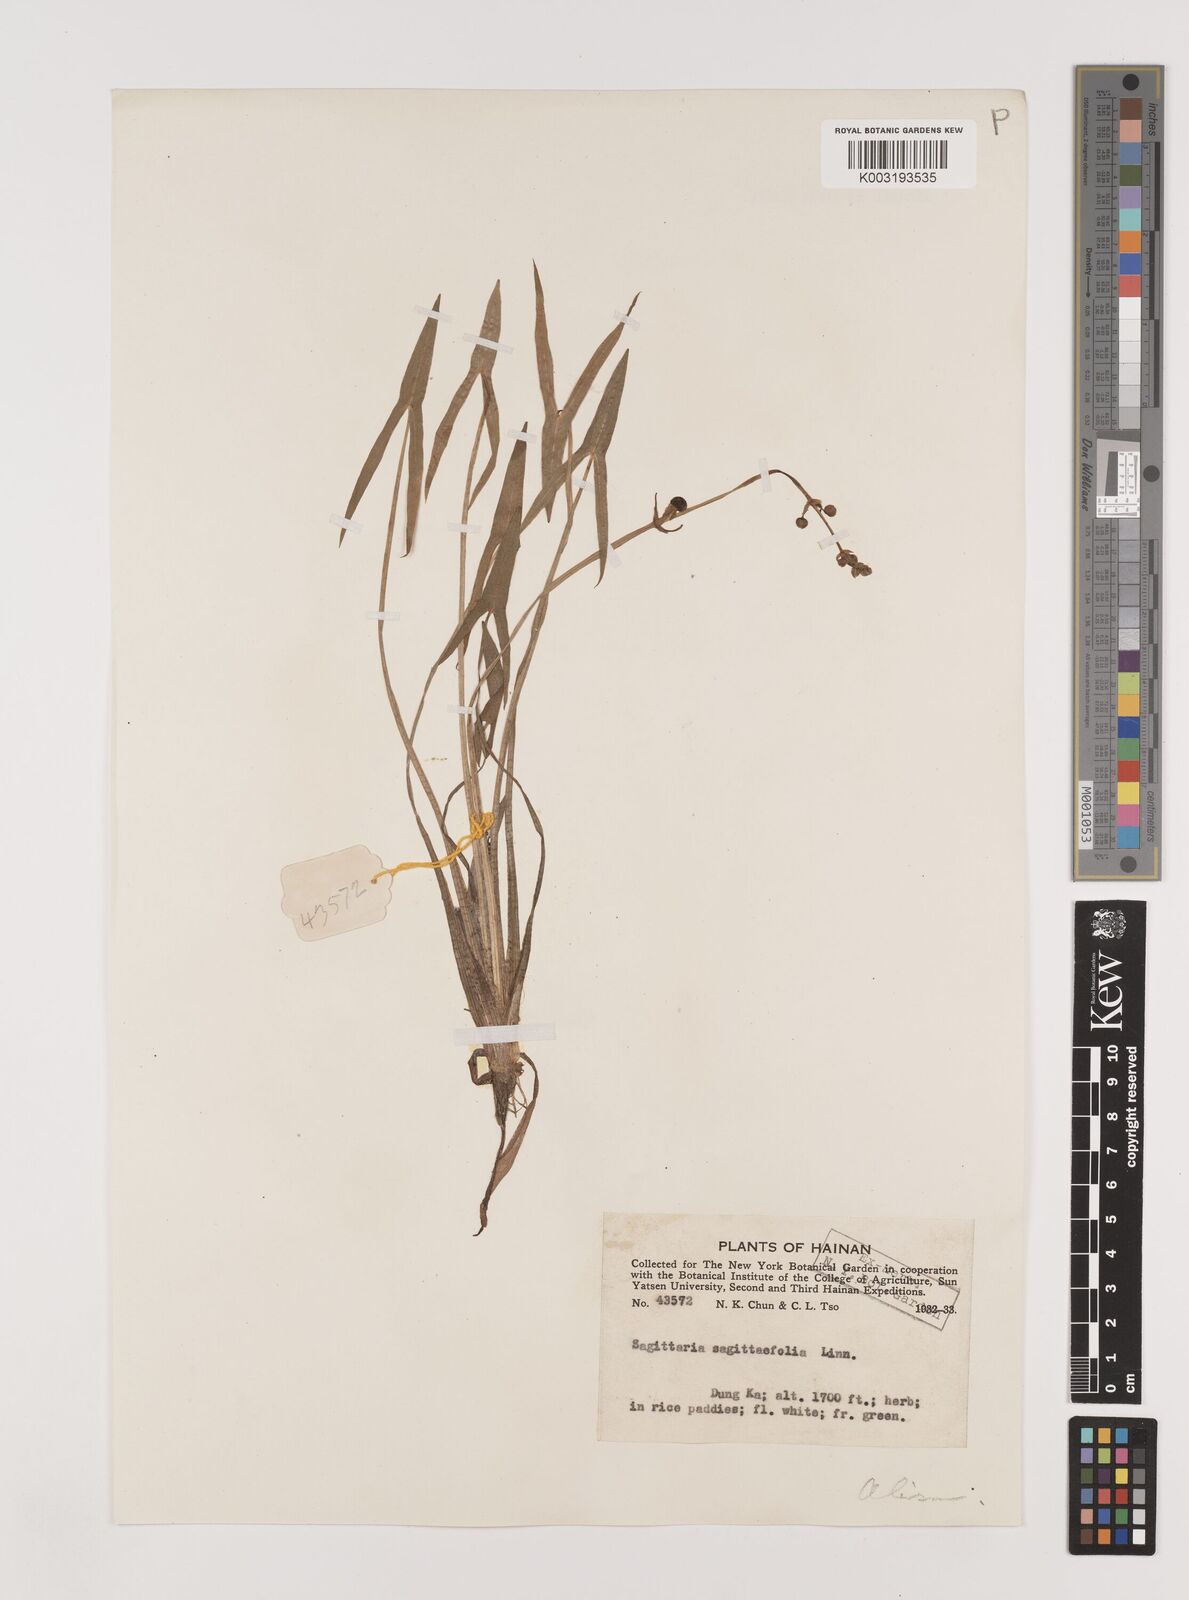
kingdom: Plantae
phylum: Tracheophyta
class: Liliopsida
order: Alismatales
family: Alismataceae
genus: Sagittaria
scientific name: Sagittaria sagittifolia
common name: Arrowhead
